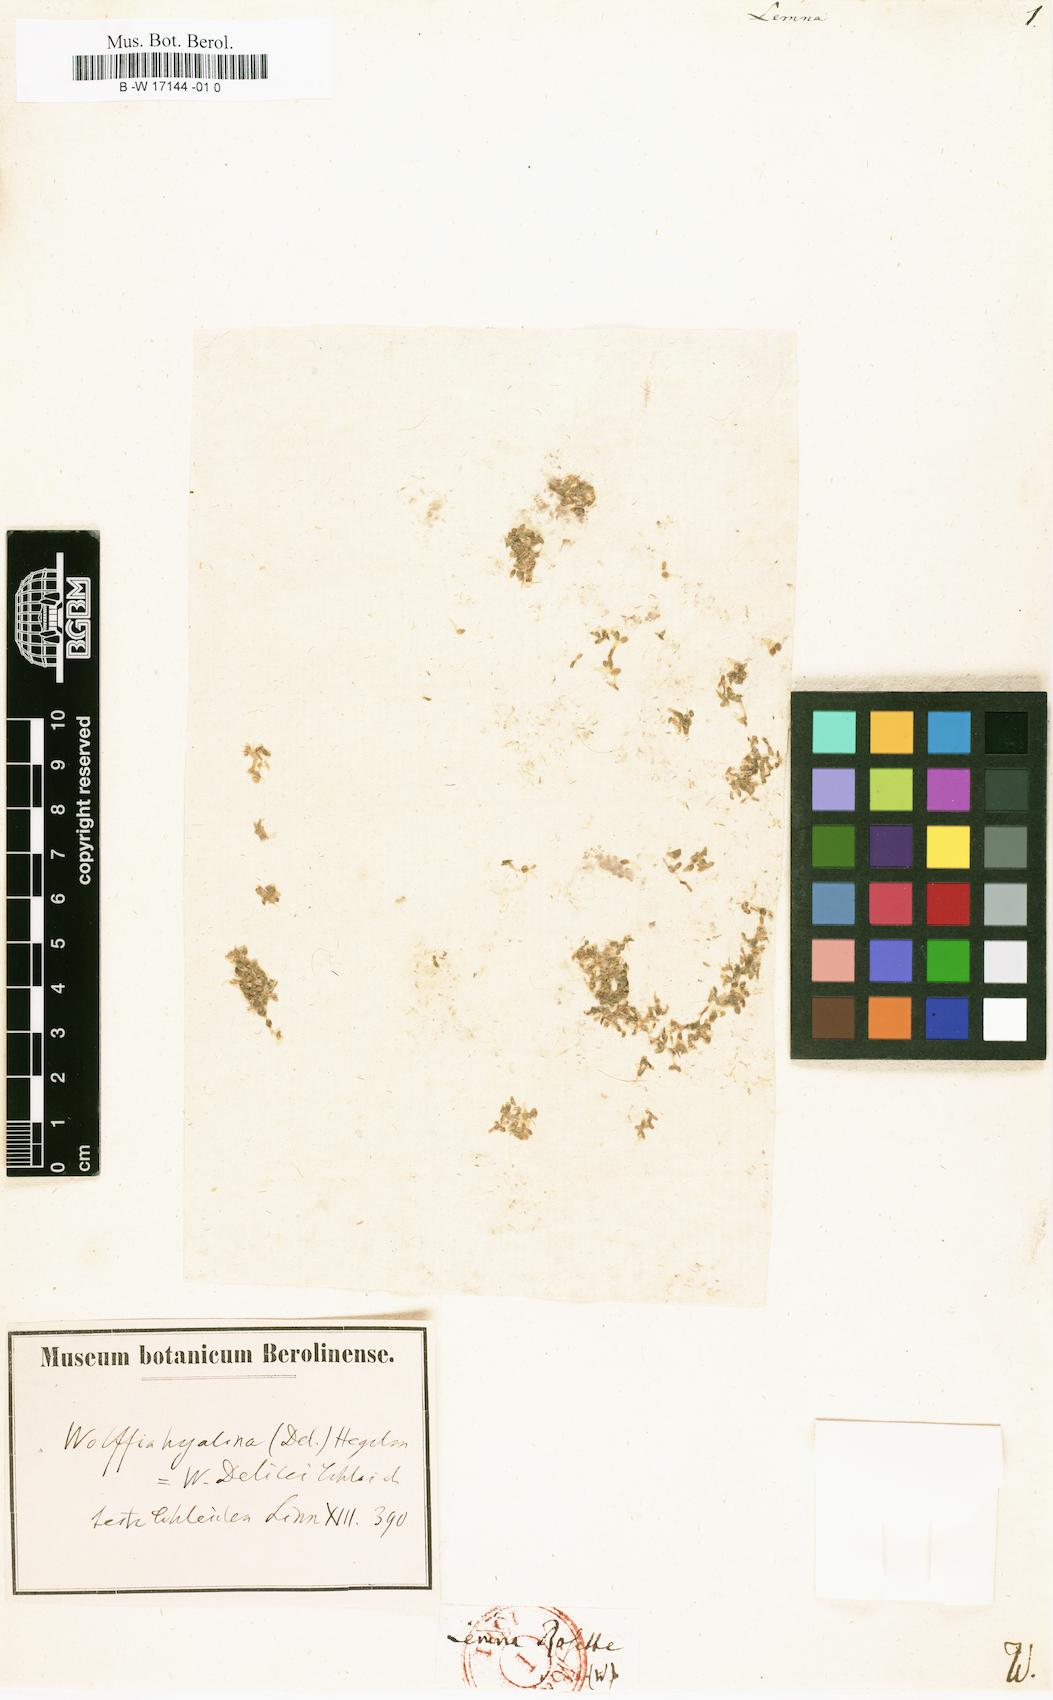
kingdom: Plantae
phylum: Tracheophyta
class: Liliopsida
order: Alismatales
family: Araceae
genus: Lemna
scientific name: Lemna
